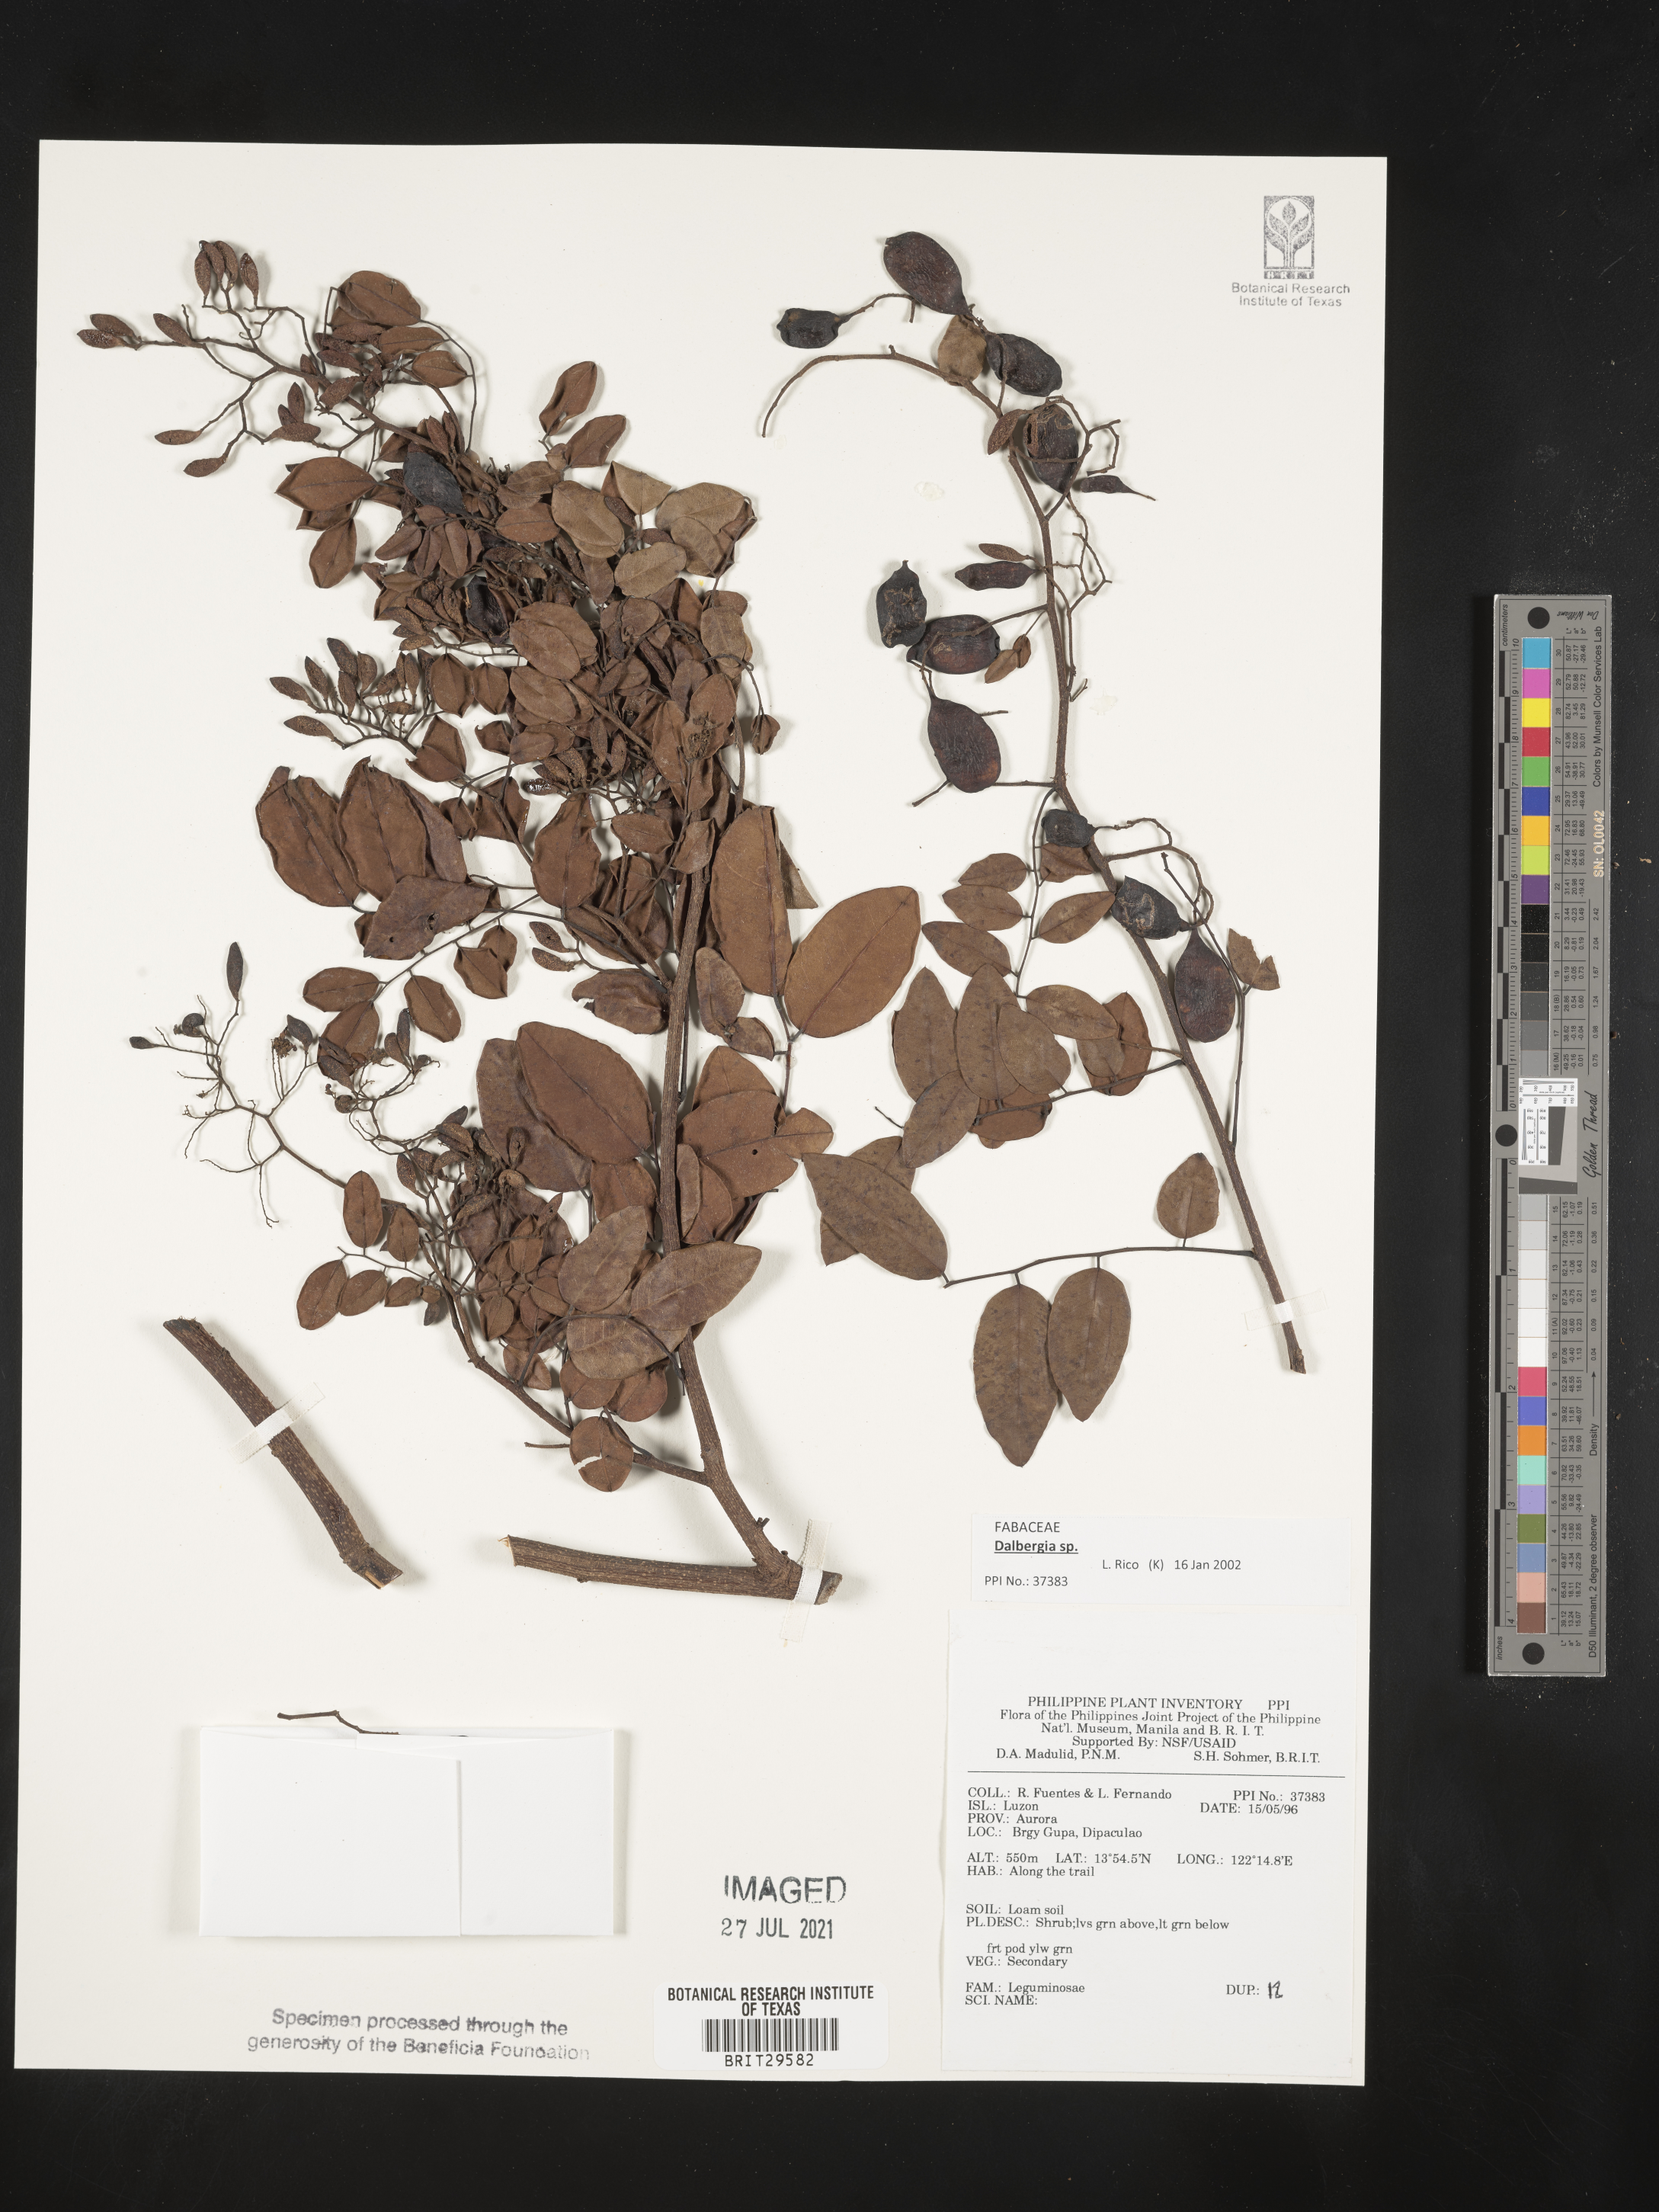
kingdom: Plantae
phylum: Tracheophyta
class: Magnoliopsida
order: Fabales
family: Fabaceae
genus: Dalbergia
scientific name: Dalbergia
